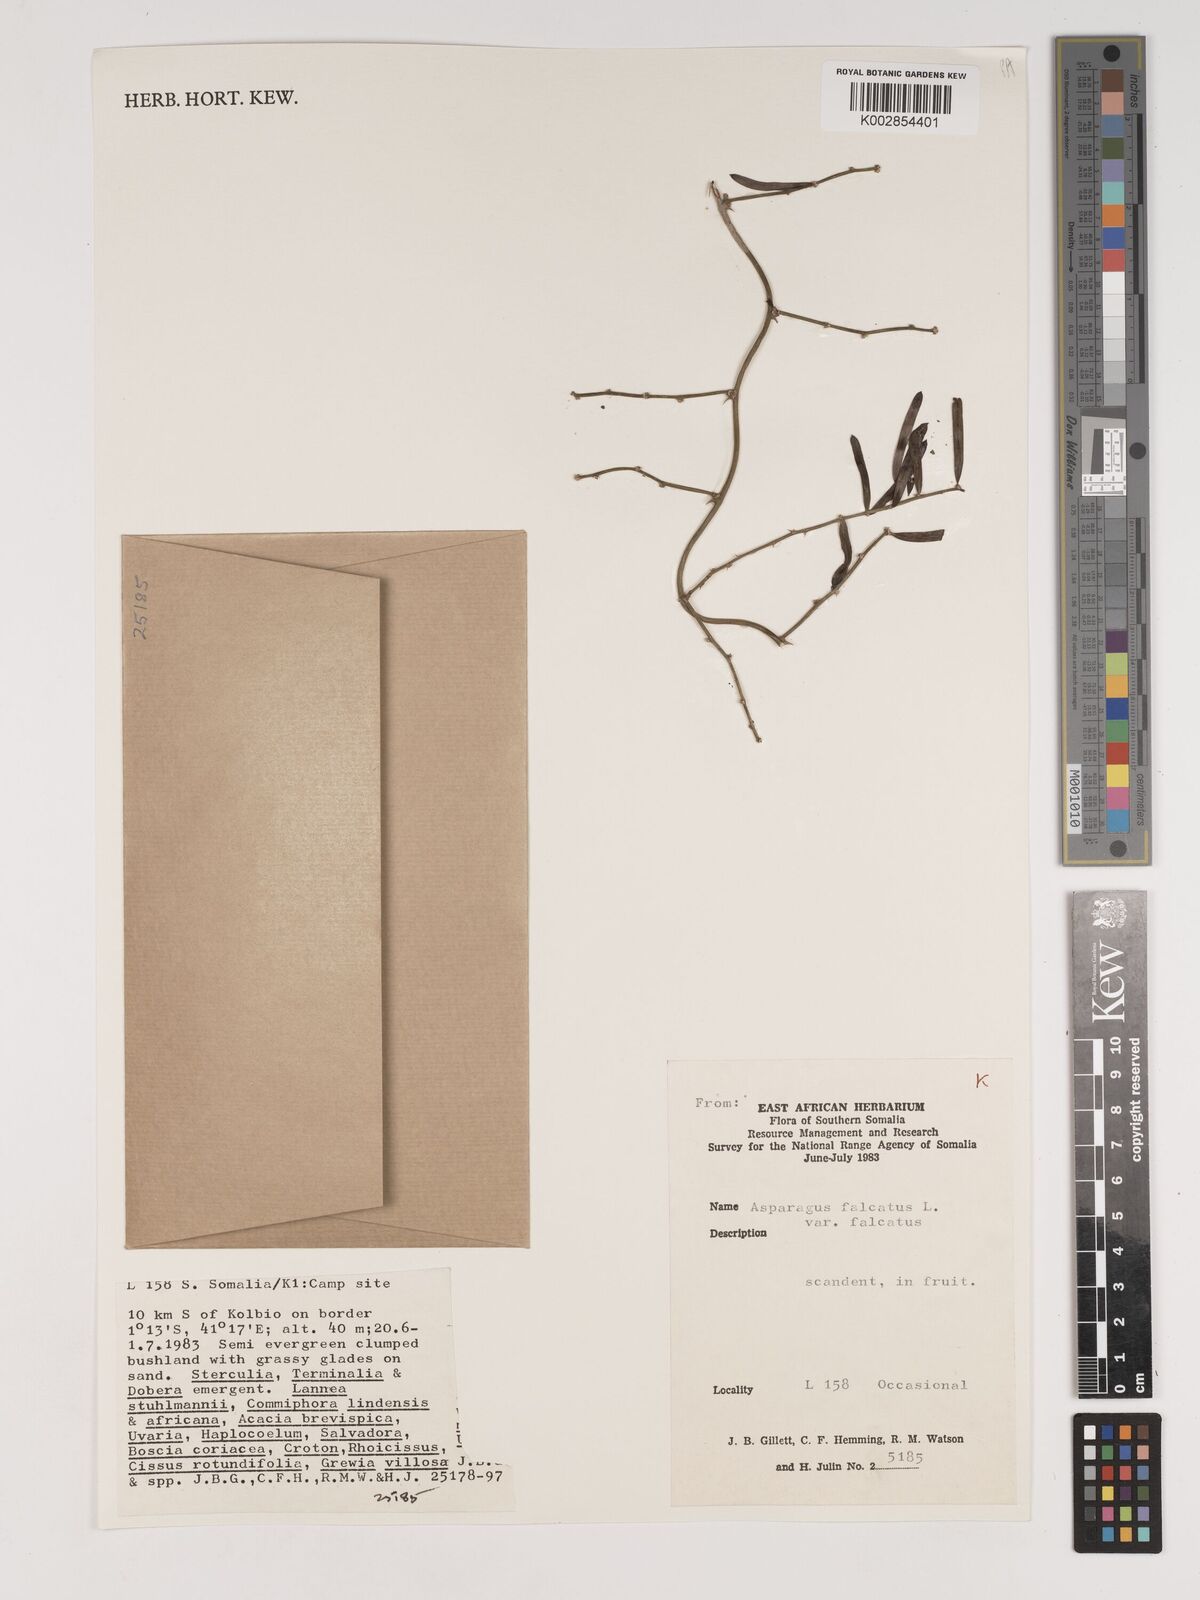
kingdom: Plantae
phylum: Tracheophyta
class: Liliopsida
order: Asparagales
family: Asparagaceae
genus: Asparagus
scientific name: Asparagus falcatus
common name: Asparagus
